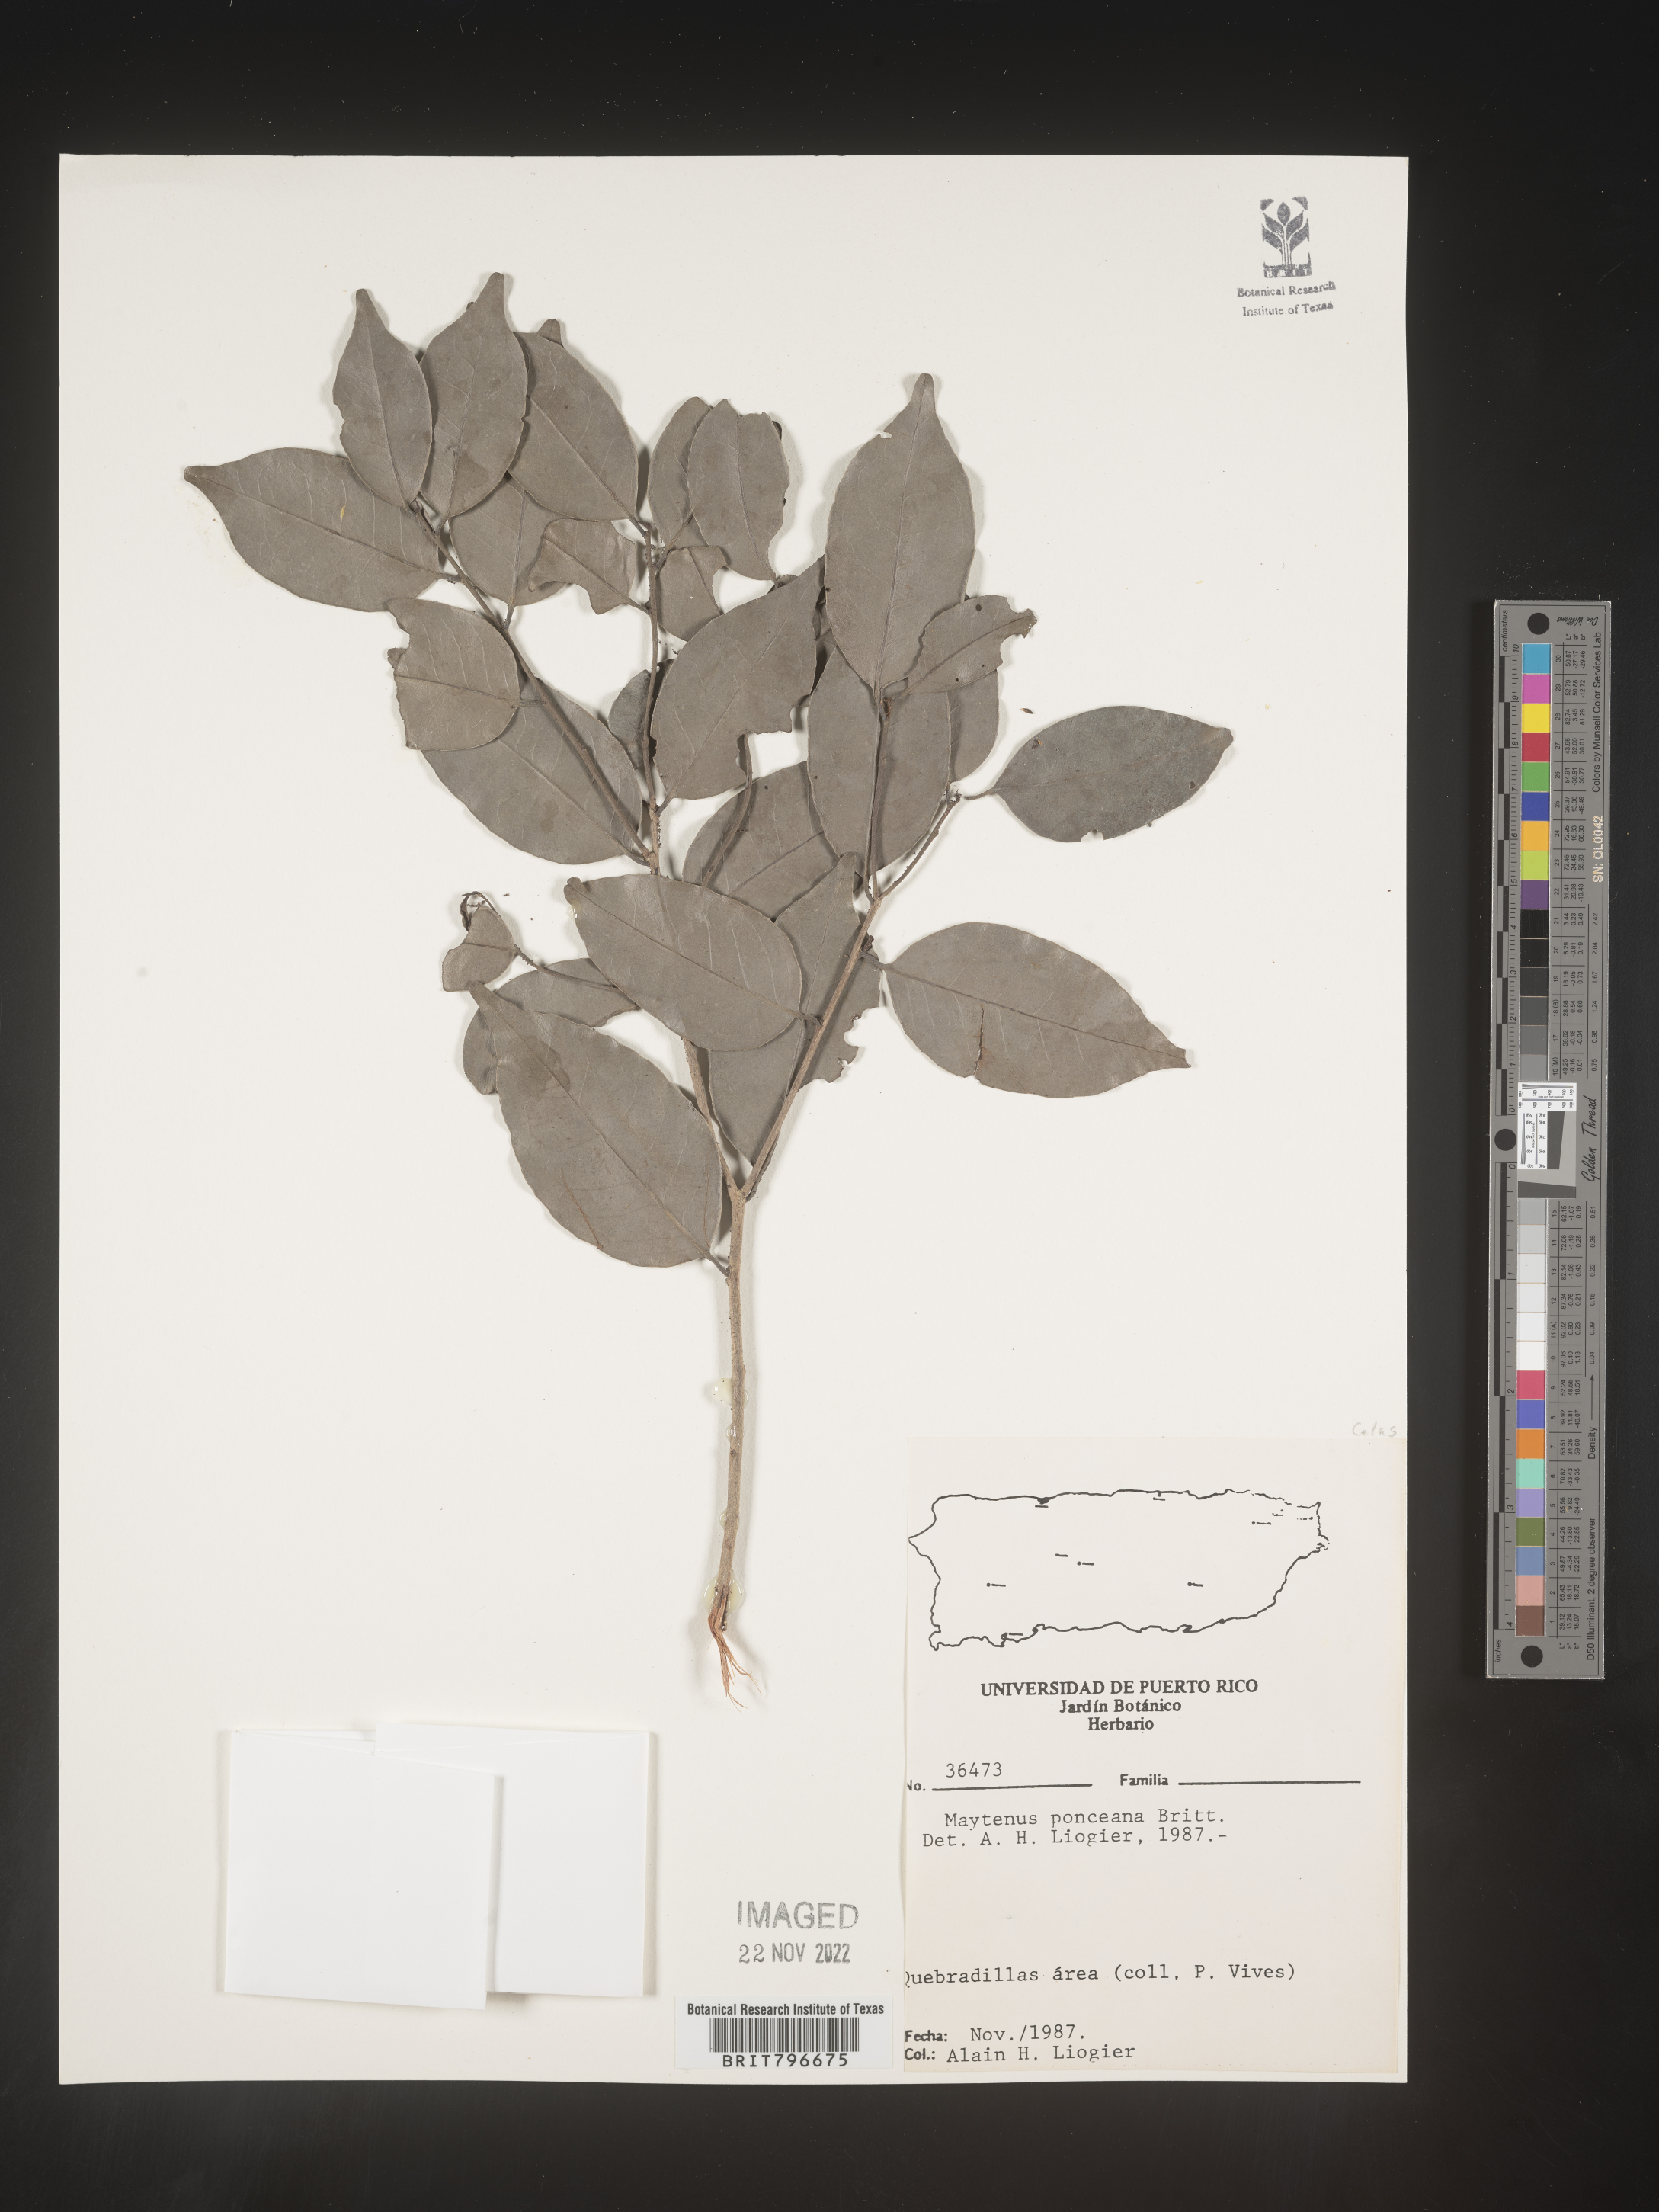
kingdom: Plantae
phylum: Tracheophyta
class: Magnoliopsida
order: Celastrales
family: Celastraceae
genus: Maytenus
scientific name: Maytenus
